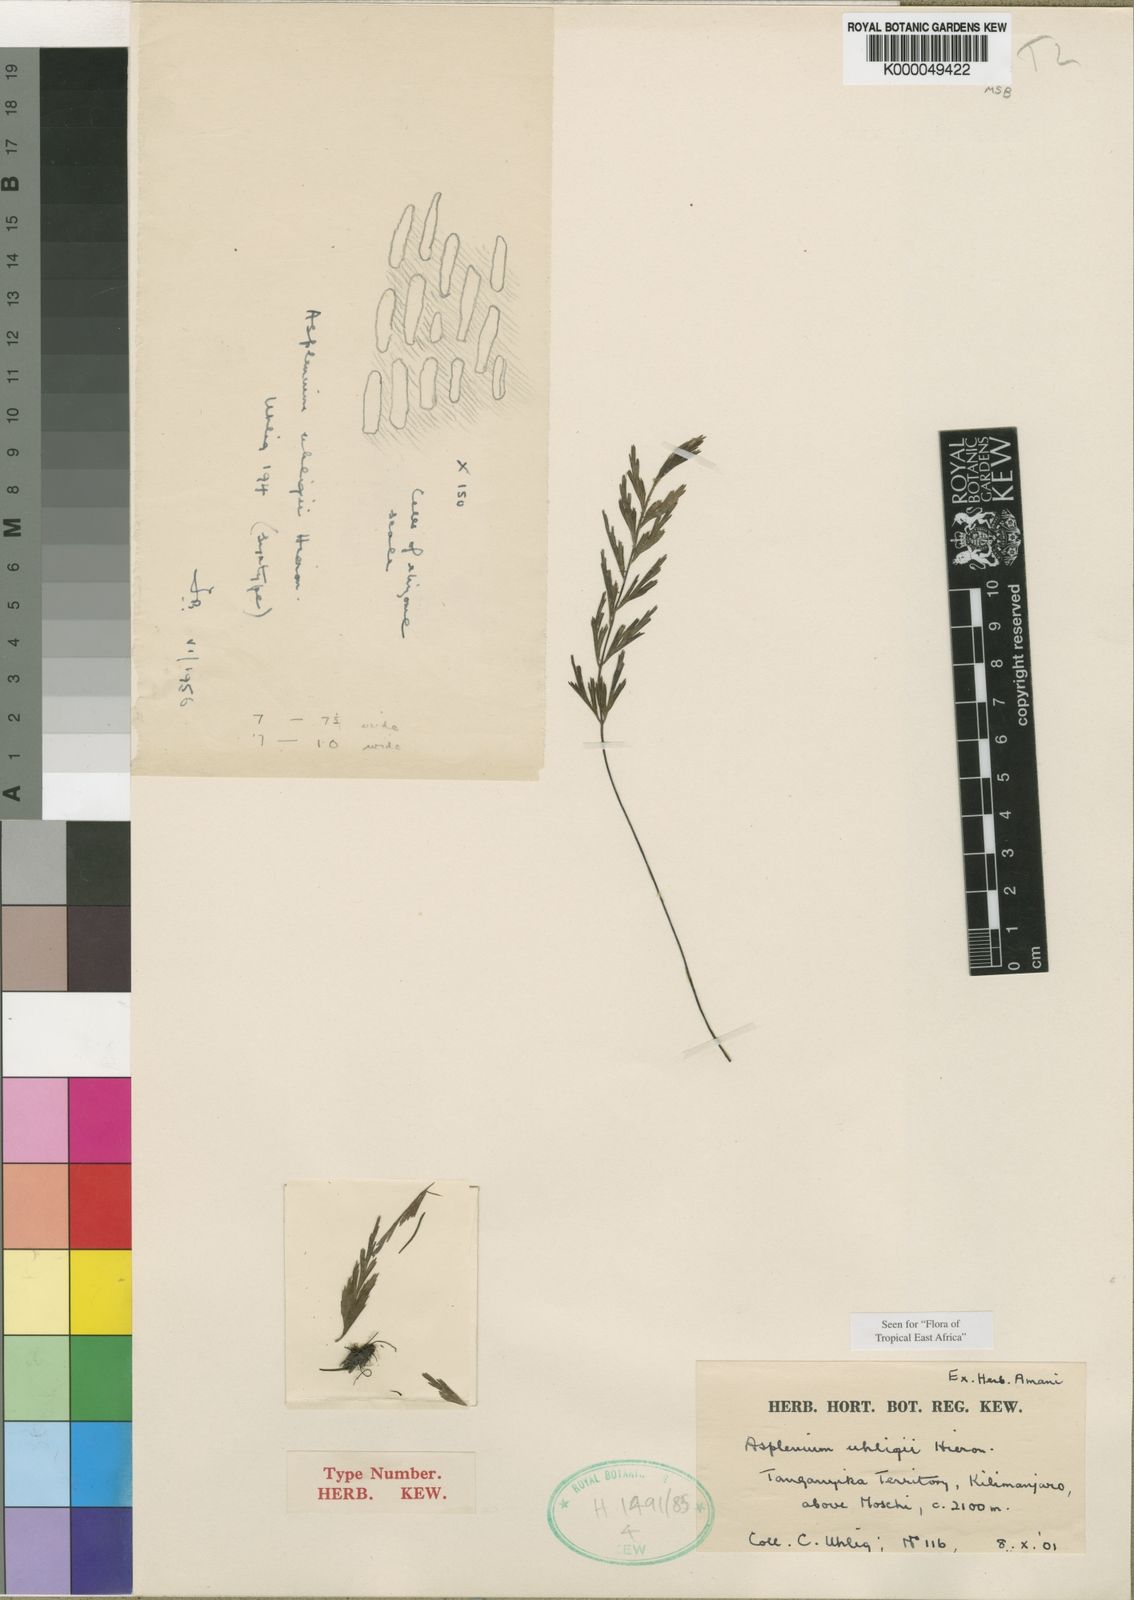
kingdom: Plantae
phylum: Tracheophyta
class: Polypodiopsida
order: Polypodiales
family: Aspleniaceae
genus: Asplenium
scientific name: Asplenium uhligii
